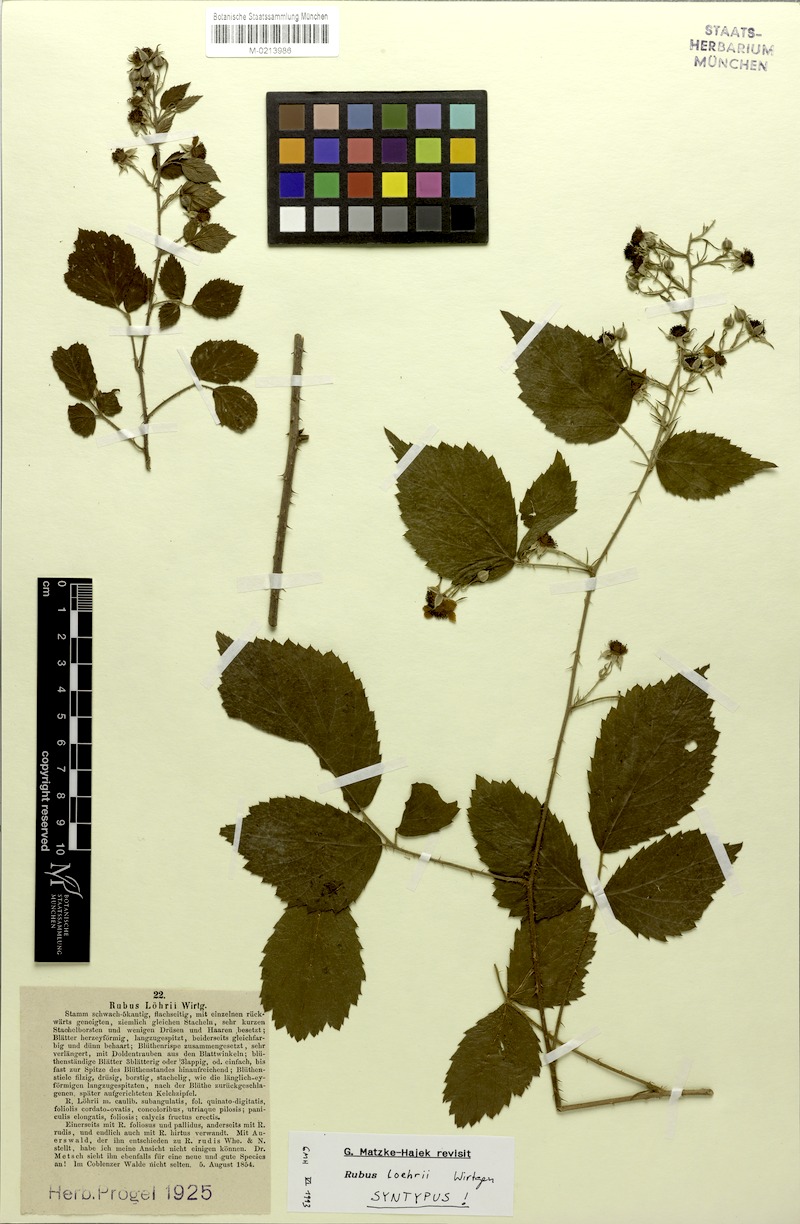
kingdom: Plantae
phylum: Tracheophyta
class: Magnoliopsida
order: Rosales
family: Rosaceae
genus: Rubus
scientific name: Rubus loehrii
